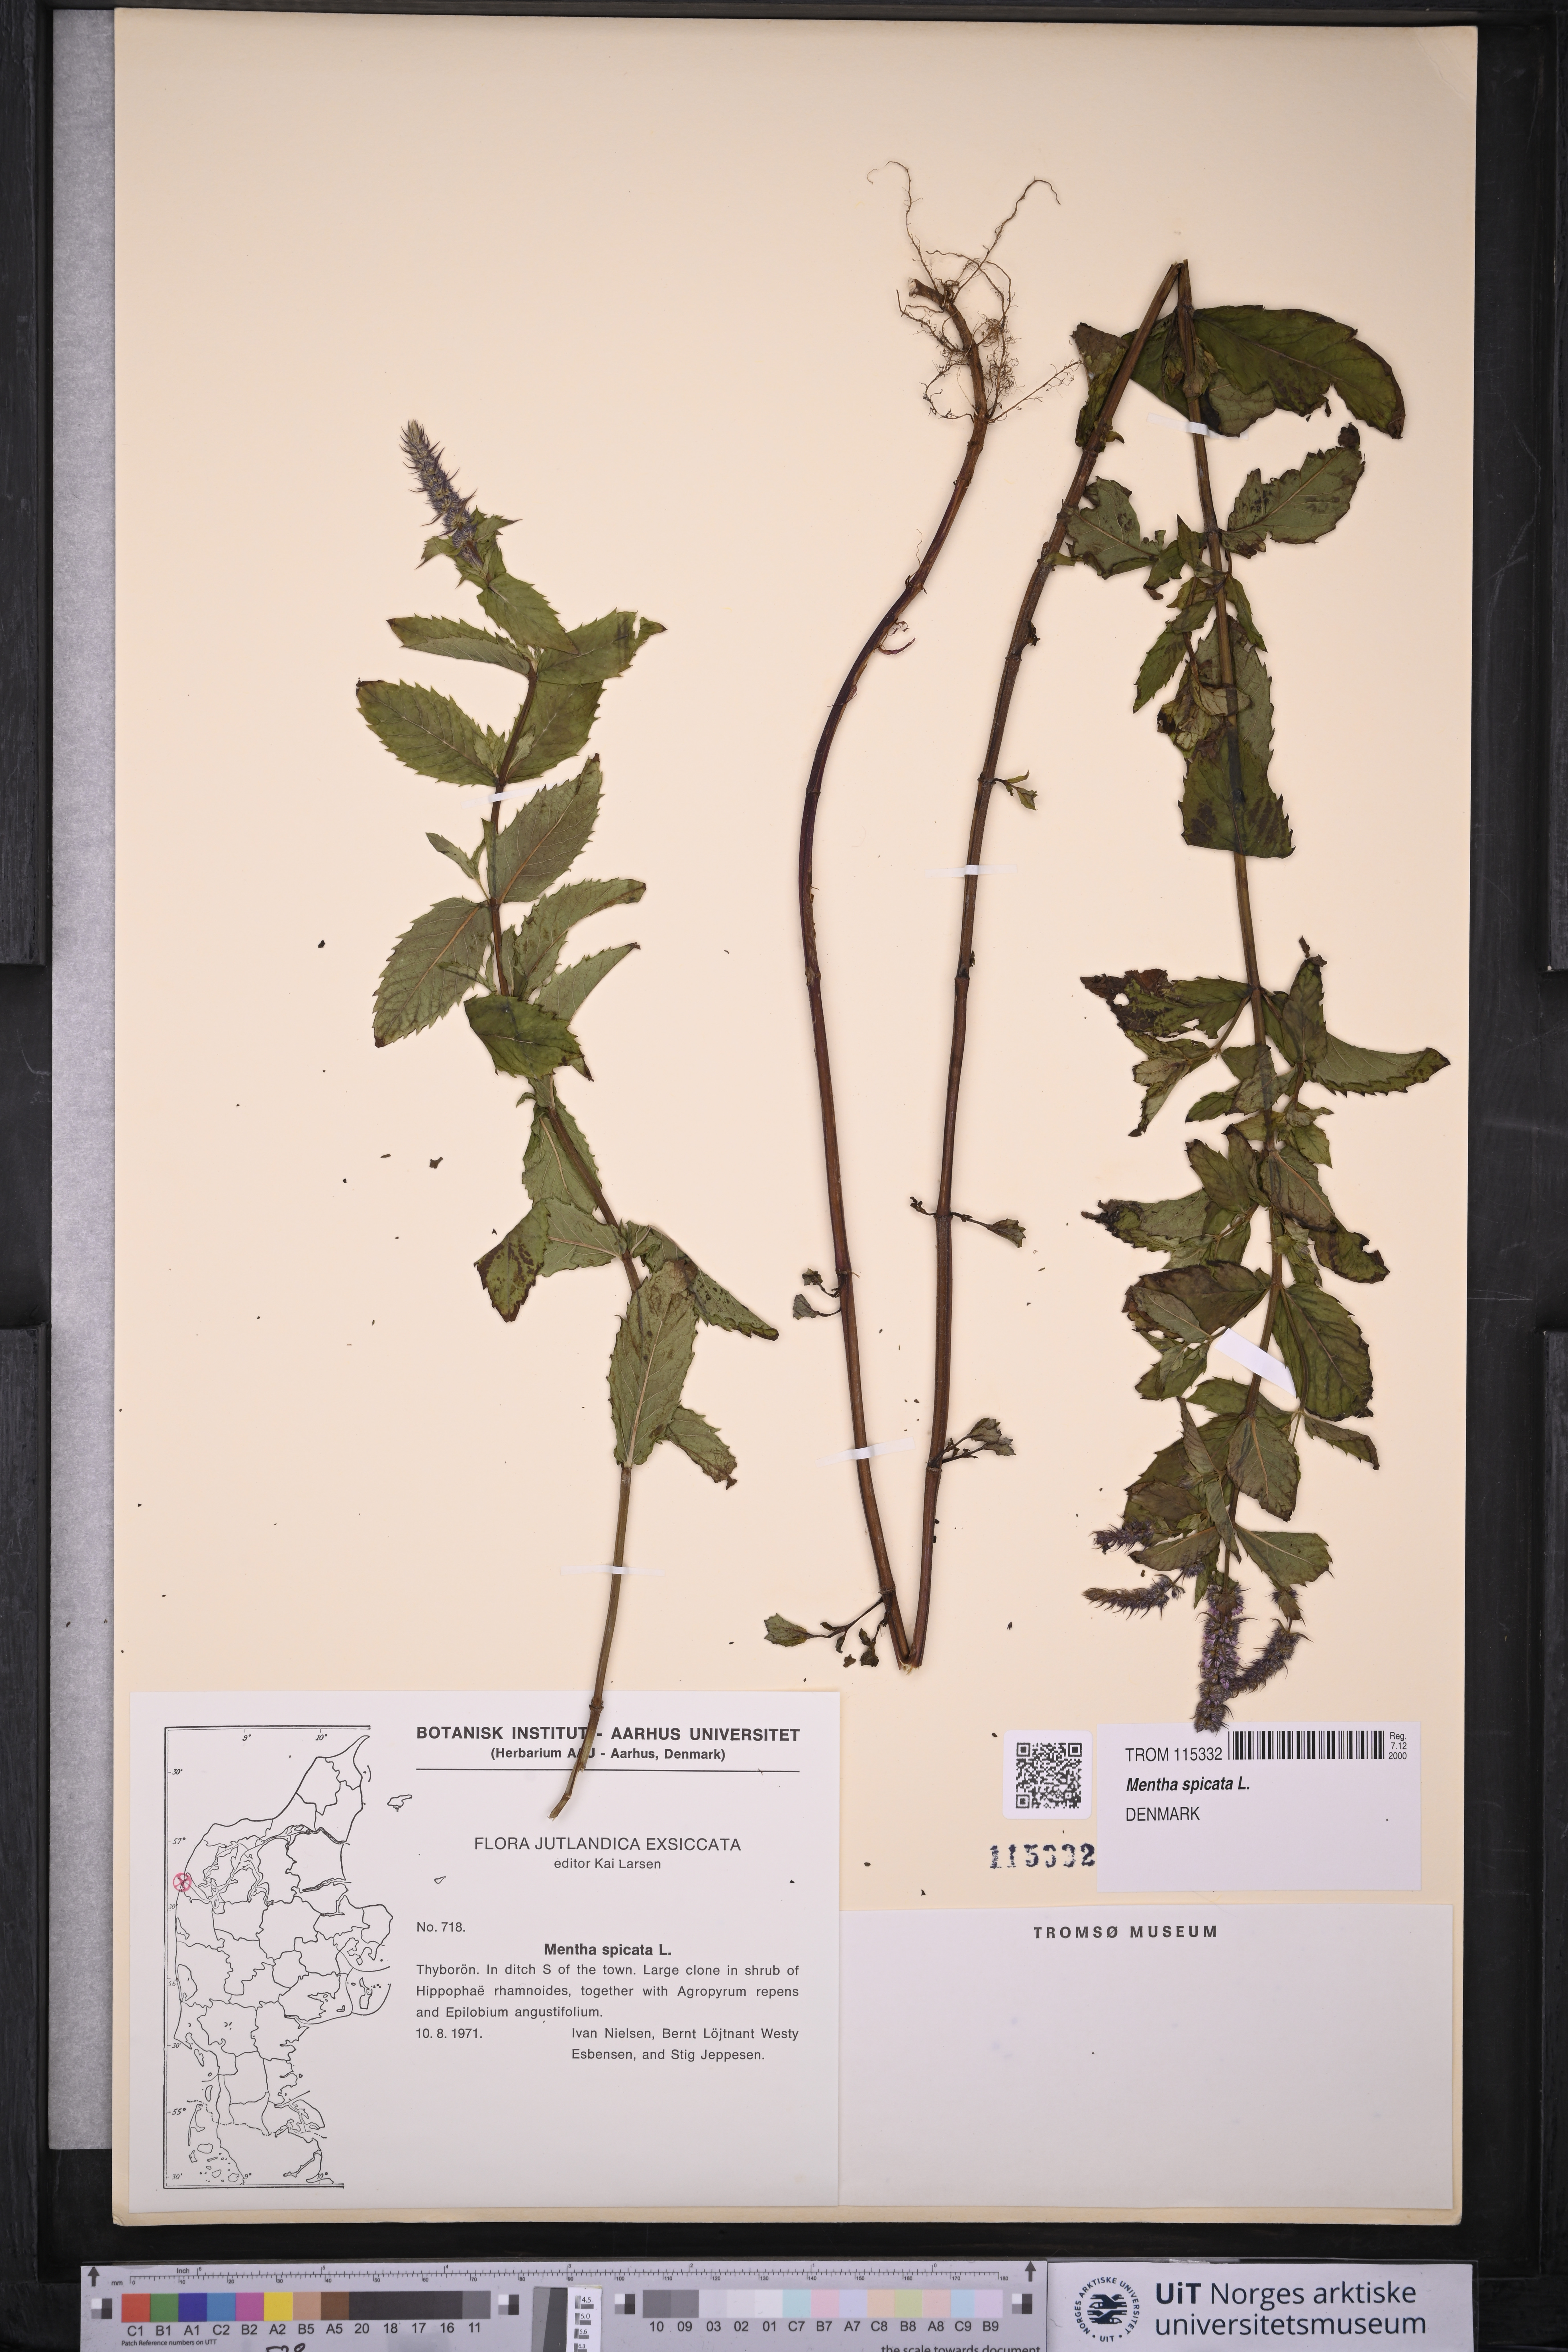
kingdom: Plantae
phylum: Tracheophyta
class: Magnoliopsida
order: Lamiales
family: Lamiaceae
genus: Mentha
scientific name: Mentha spicata
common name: Spearmint
